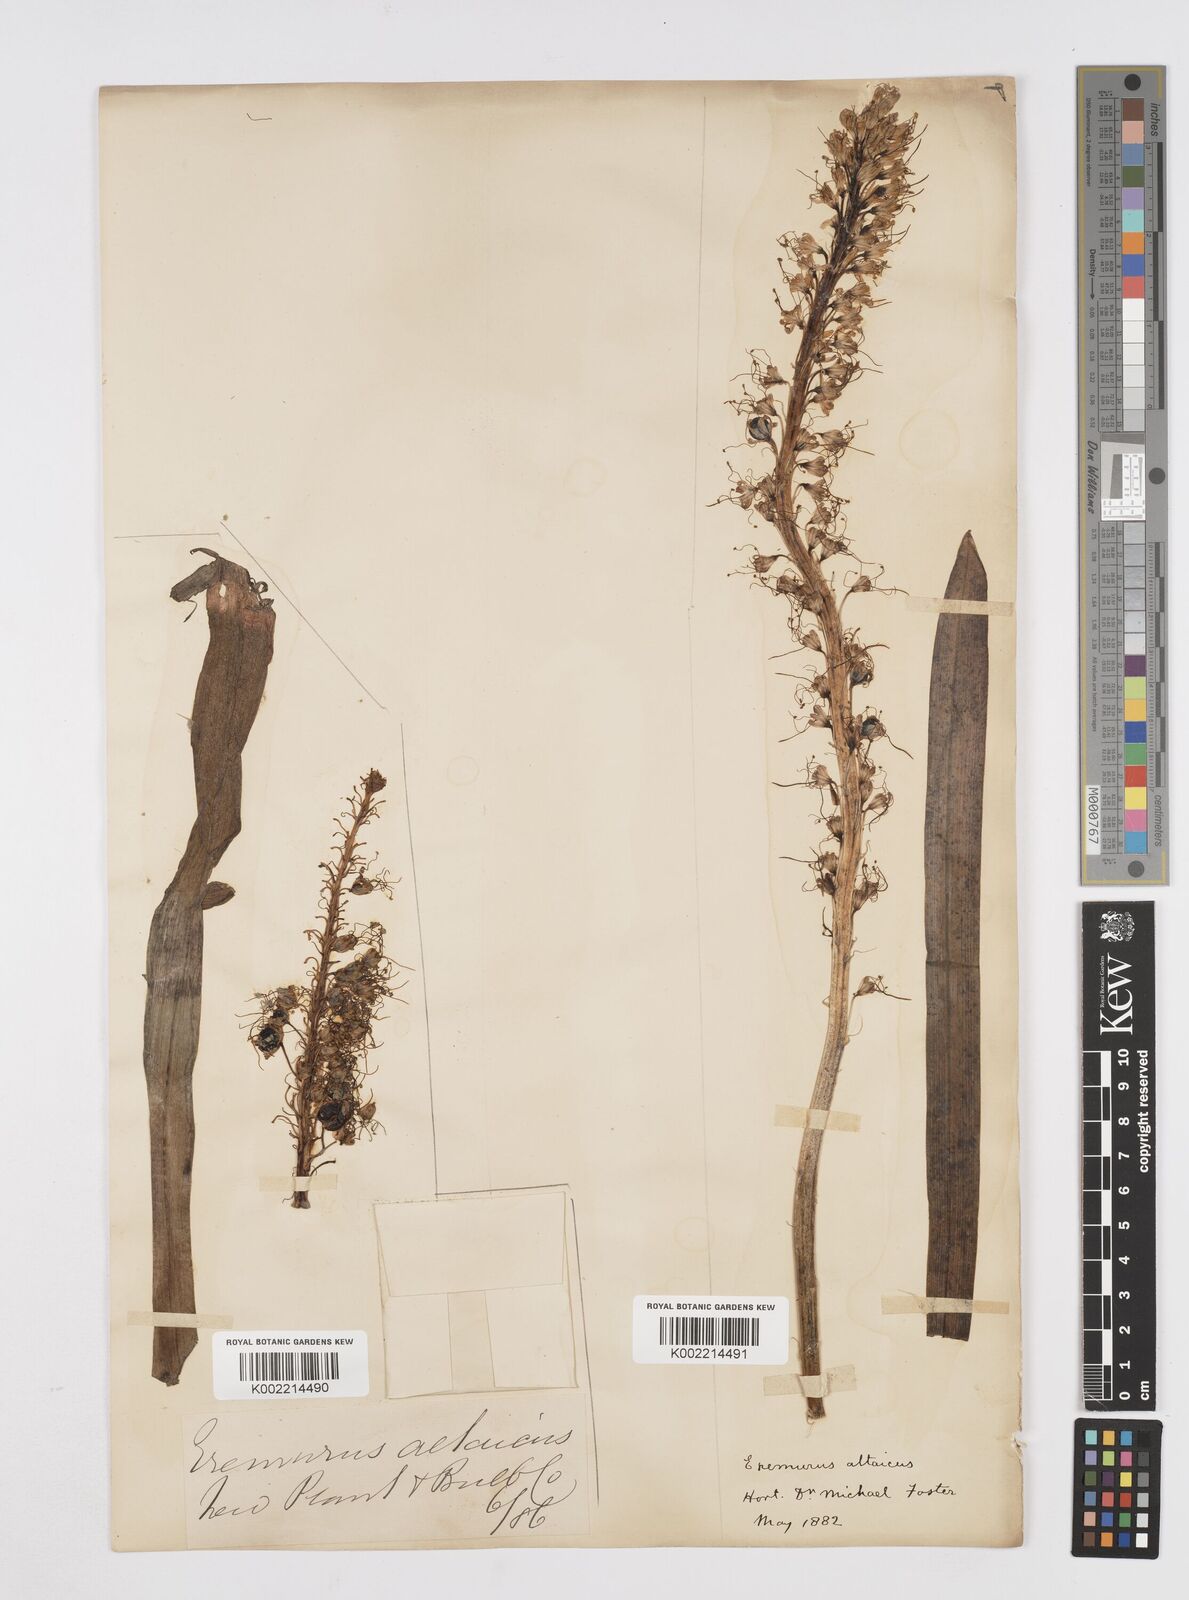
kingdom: Plantae
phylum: Tracheophyta
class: Liliopsida
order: Asparagales
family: Asphodelaceae
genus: Eremurus
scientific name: Eremurus altaicus
